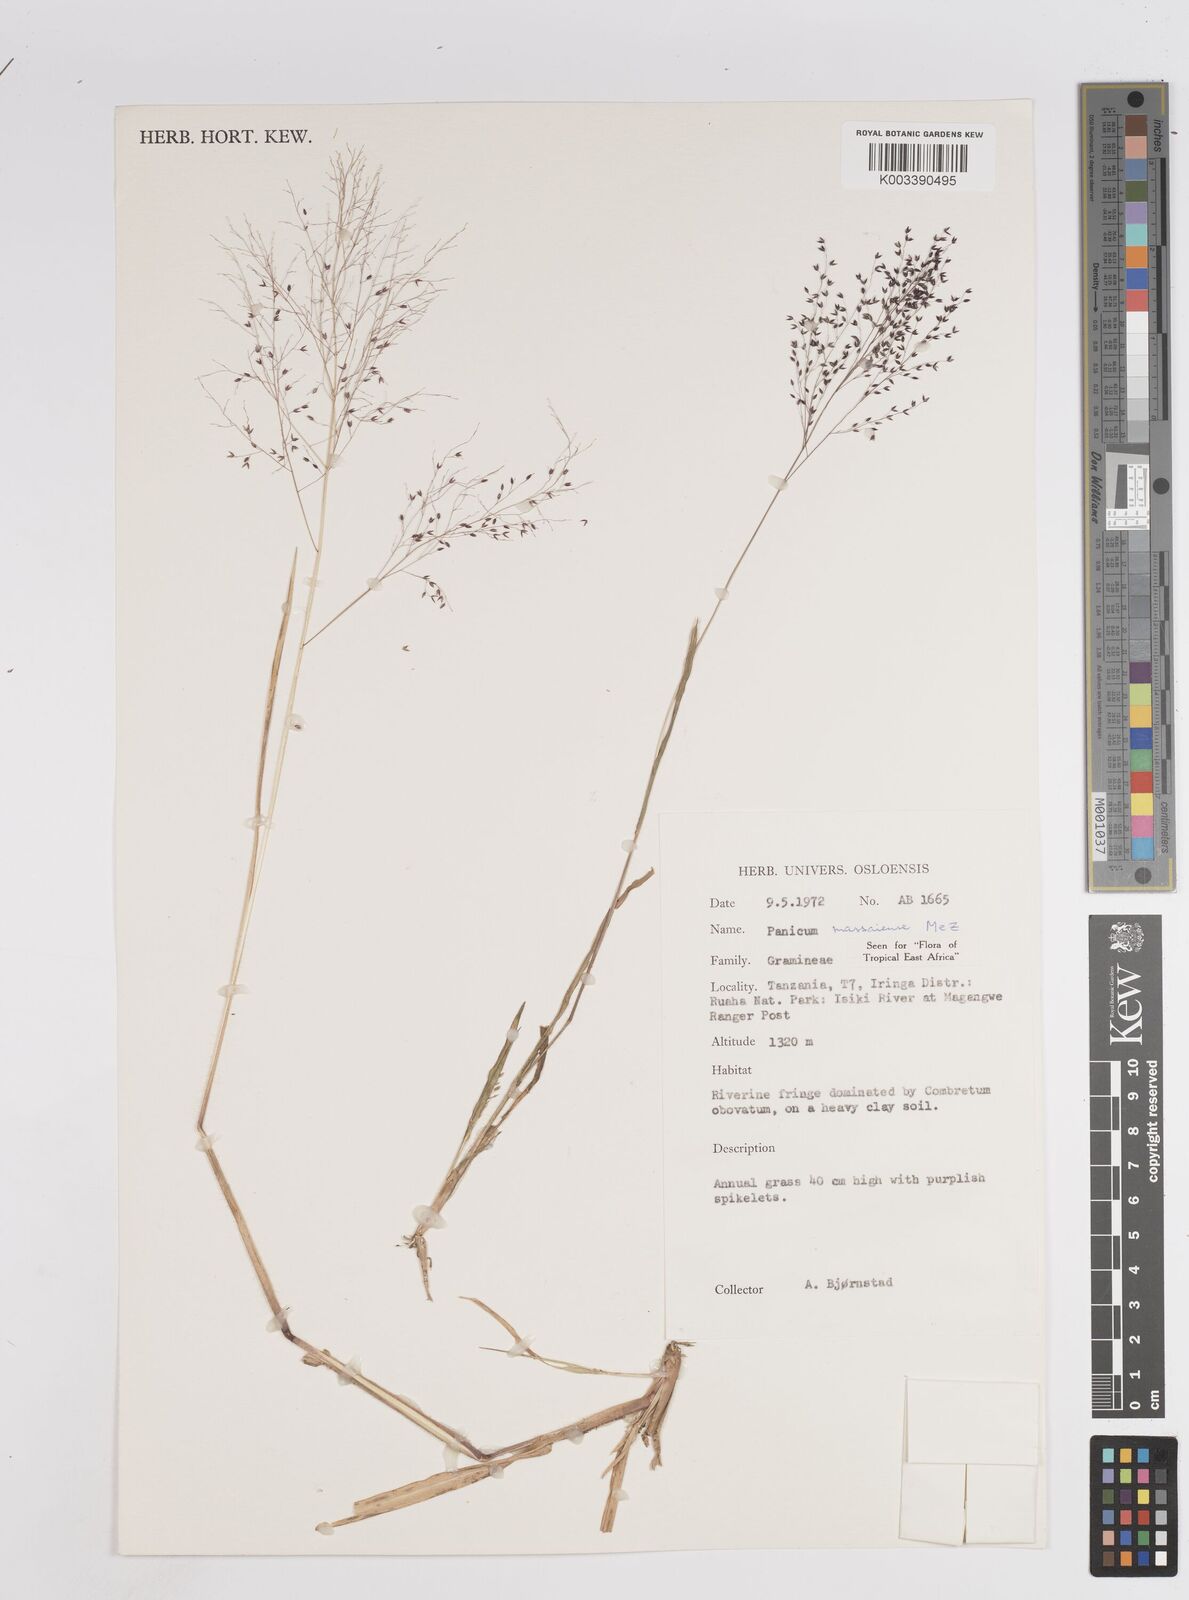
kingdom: Plantae
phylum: Tracheophyta
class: Liliopsida
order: Poales
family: Poaceae
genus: Panicum
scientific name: Panicum massaiense
